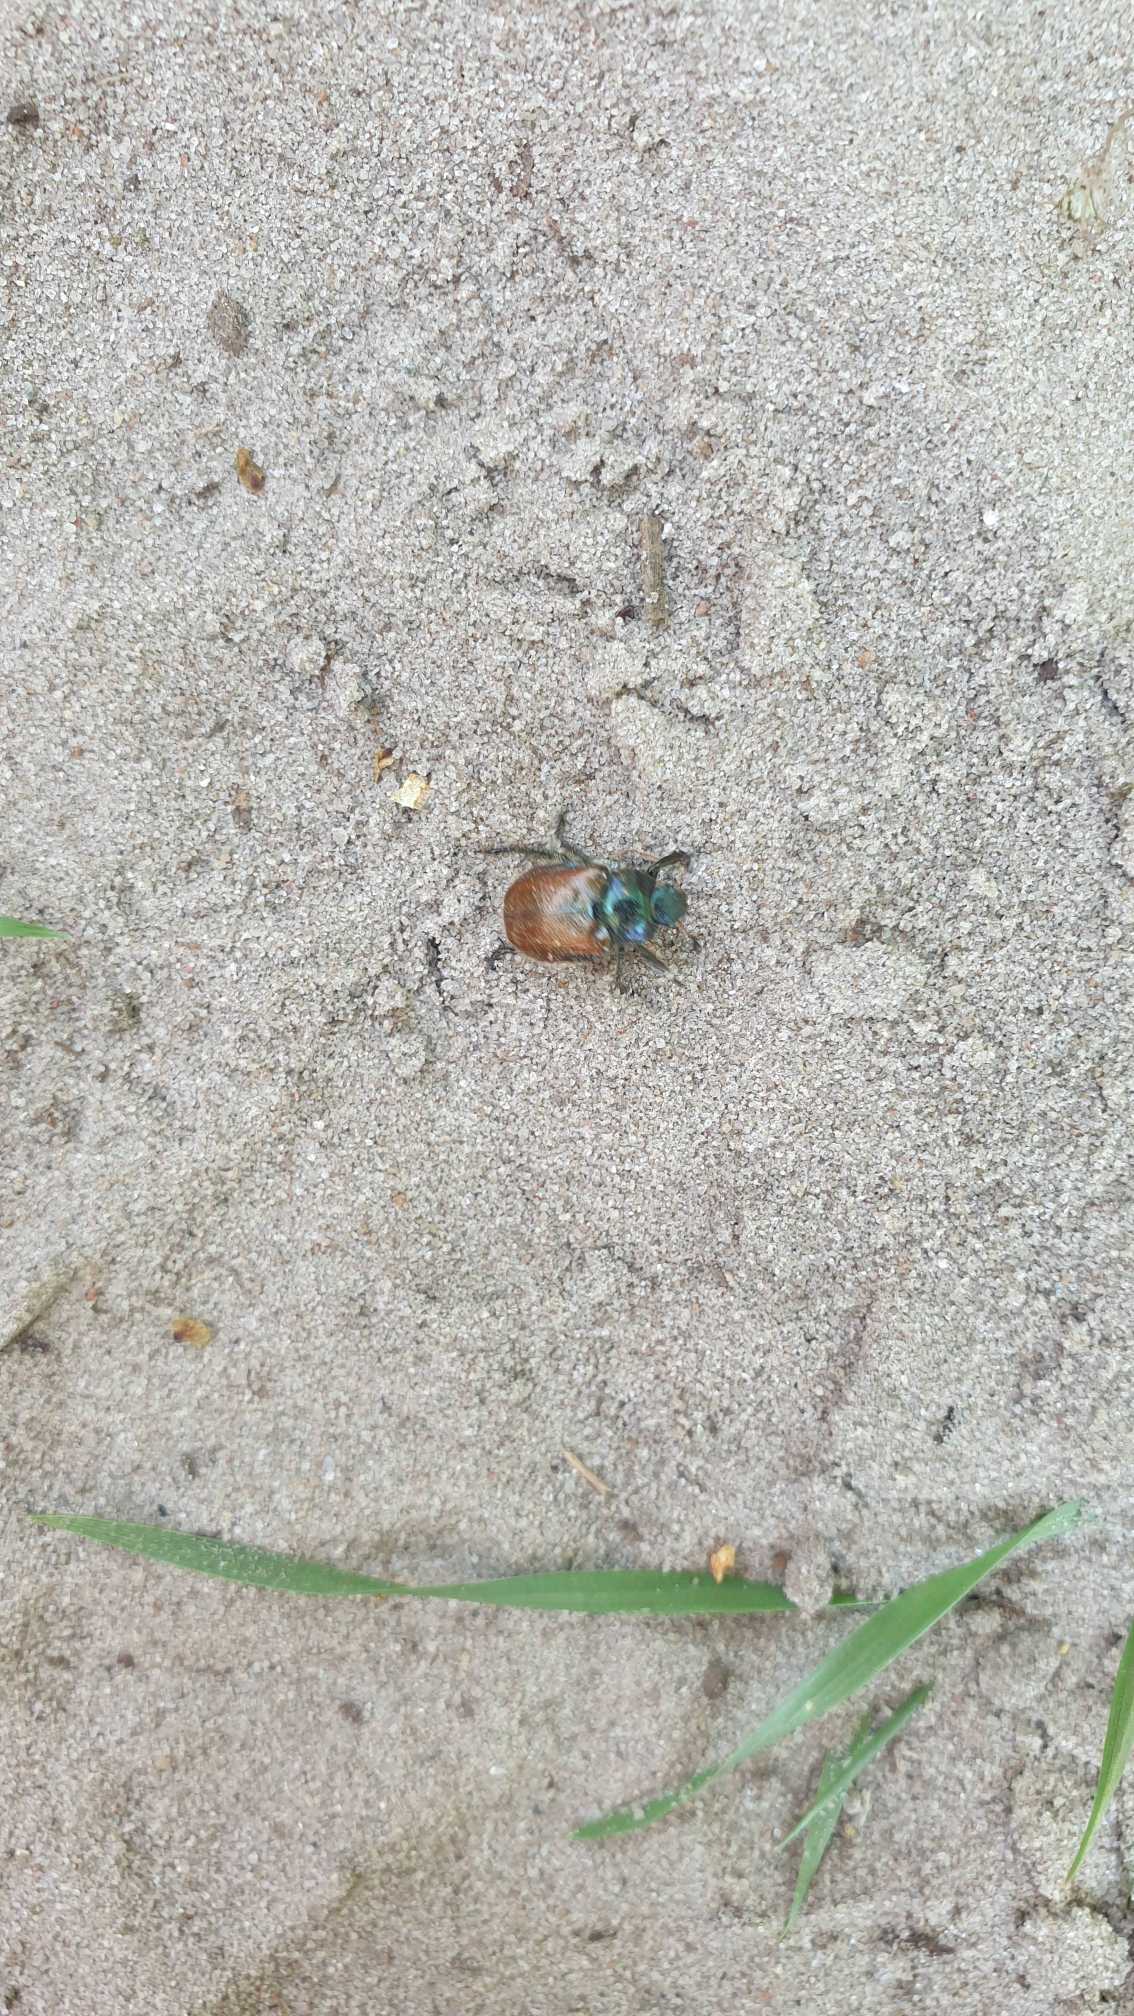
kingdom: Animalia
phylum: Arthropoda
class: Insecta
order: Coleoptera
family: Scarabaeidae
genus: Phyllopertha
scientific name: Phyllopertha horticola
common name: Gåsebille
